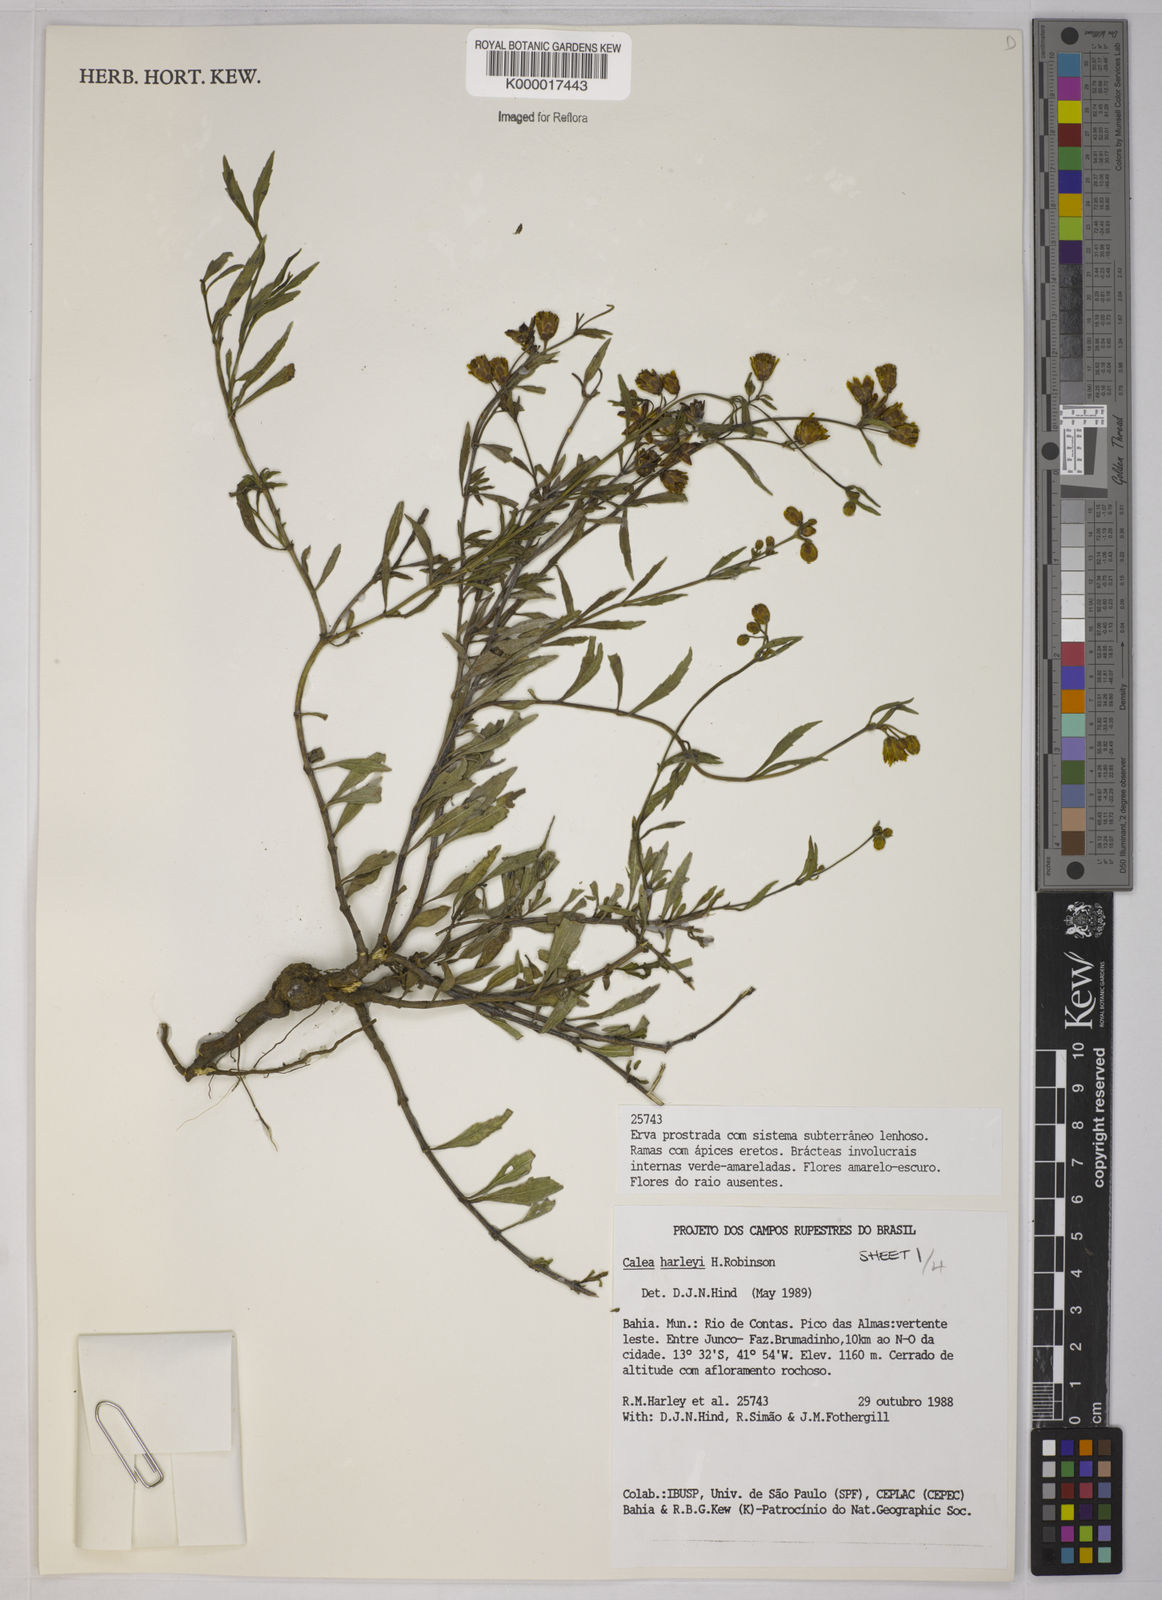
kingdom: Plantae
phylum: Tracheophyta
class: Magnoliopsida
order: Asterales
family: Asteraceae
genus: Calea
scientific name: Calea harleyi
